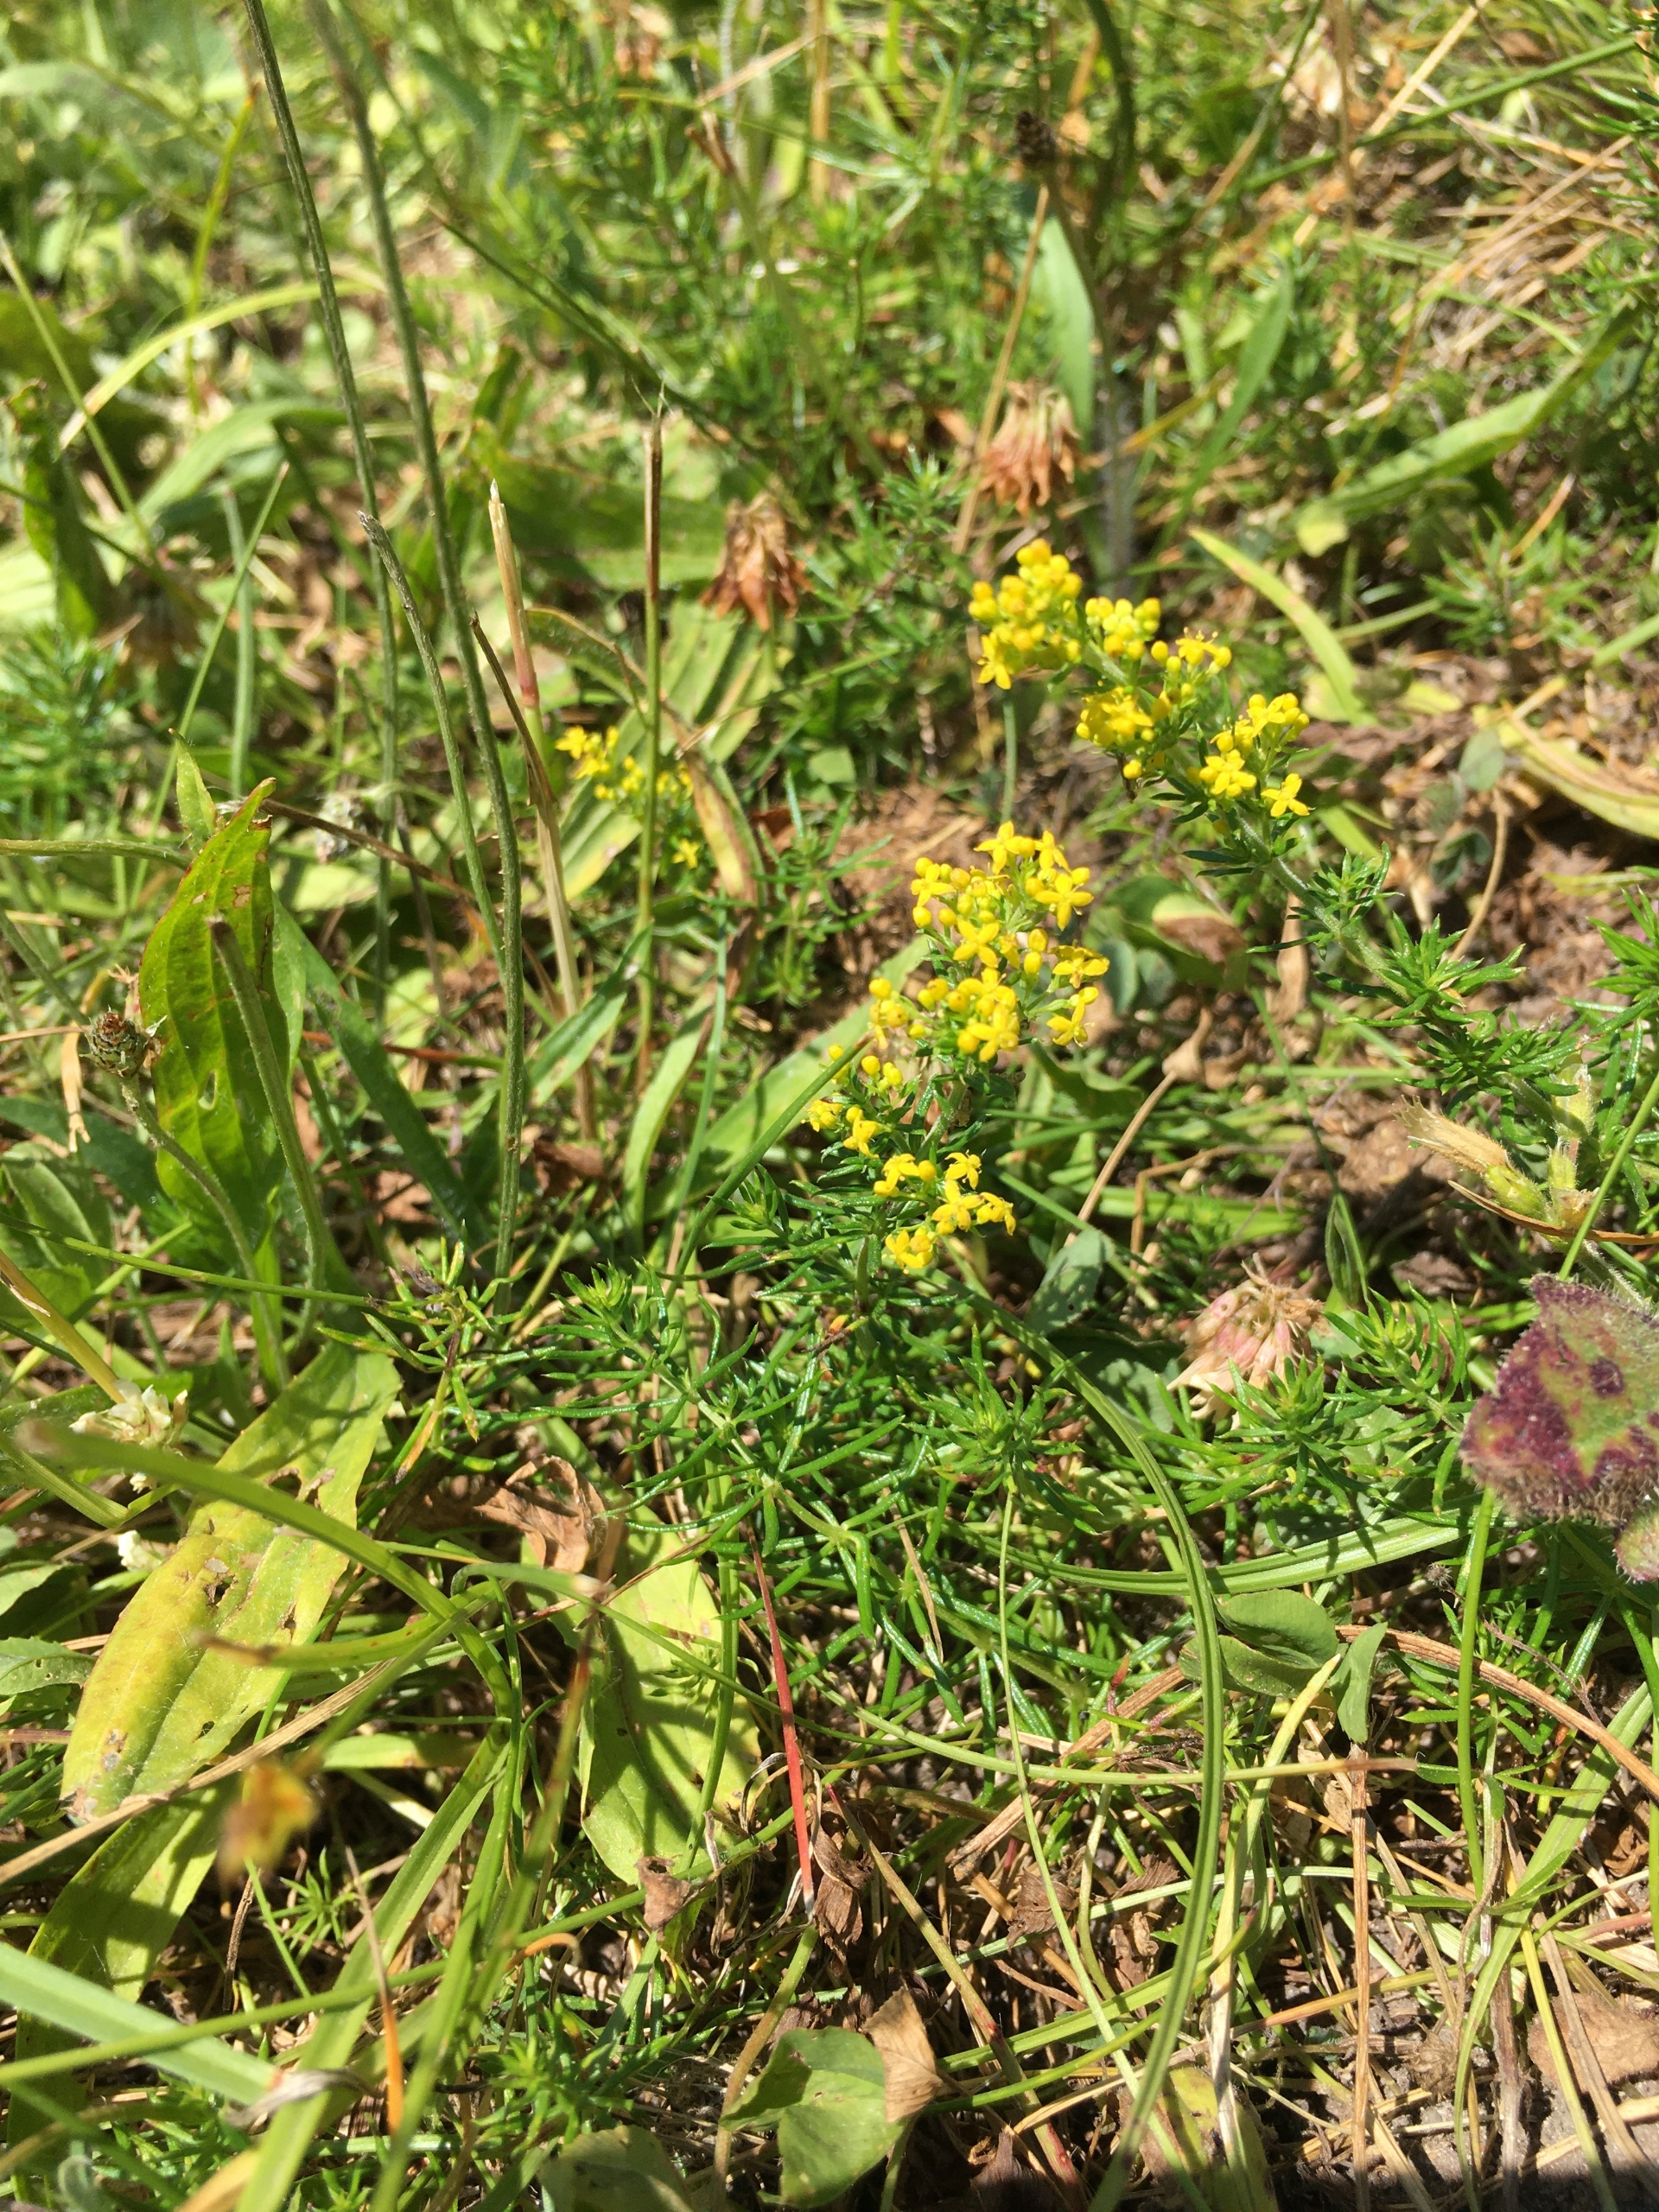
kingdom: Plantae
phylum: Tracheophyta
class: Magnoliopsida
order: Gentianales
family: Rubiaceae
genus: Galium
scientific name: Galium verum
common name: Gul snerre
